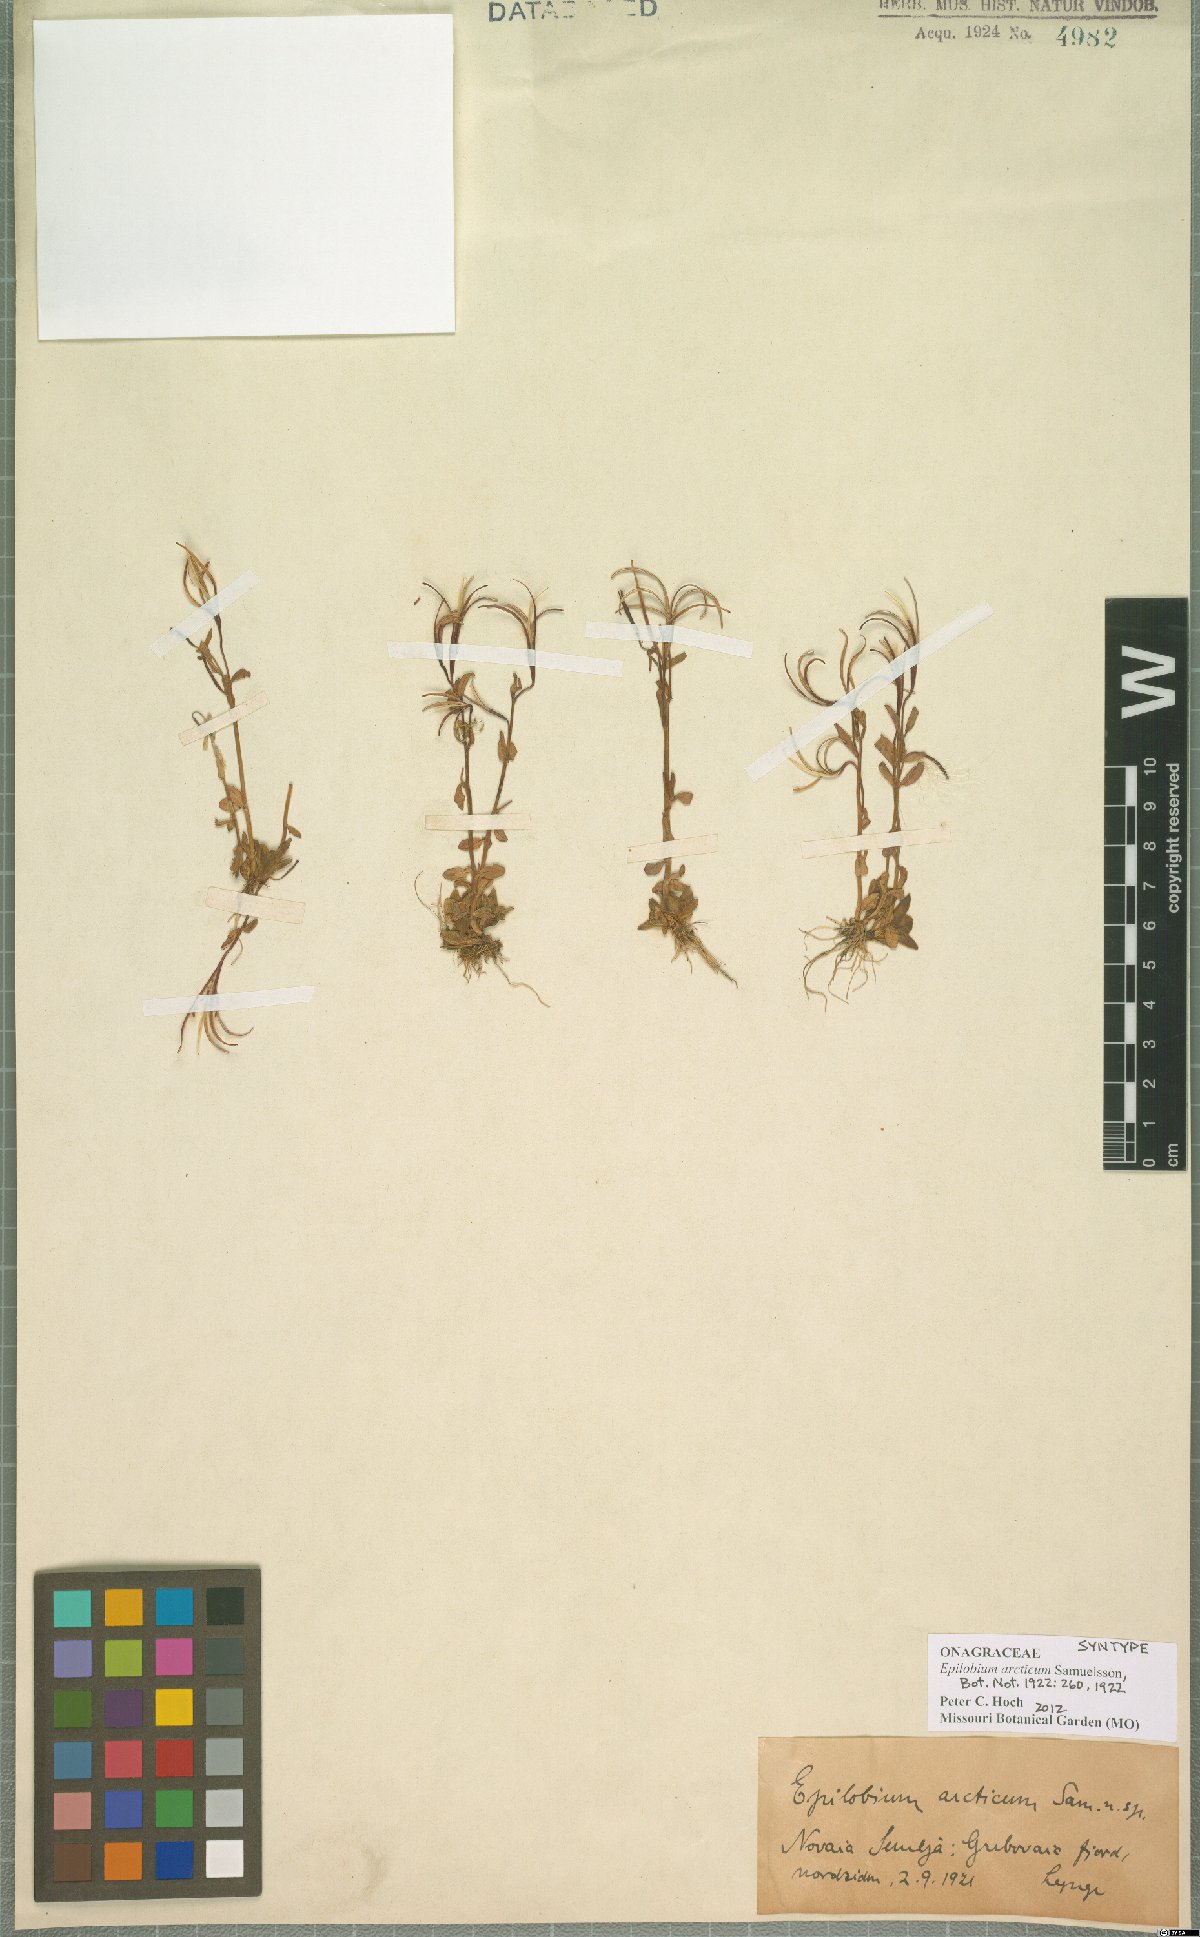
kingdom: Plantae
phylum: Tracheophyta
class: Magnoliopsida
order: Myrtales
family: Onagraceae
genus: Epilobium
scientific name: Epilobium arcticum
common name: Arctic willowherb
